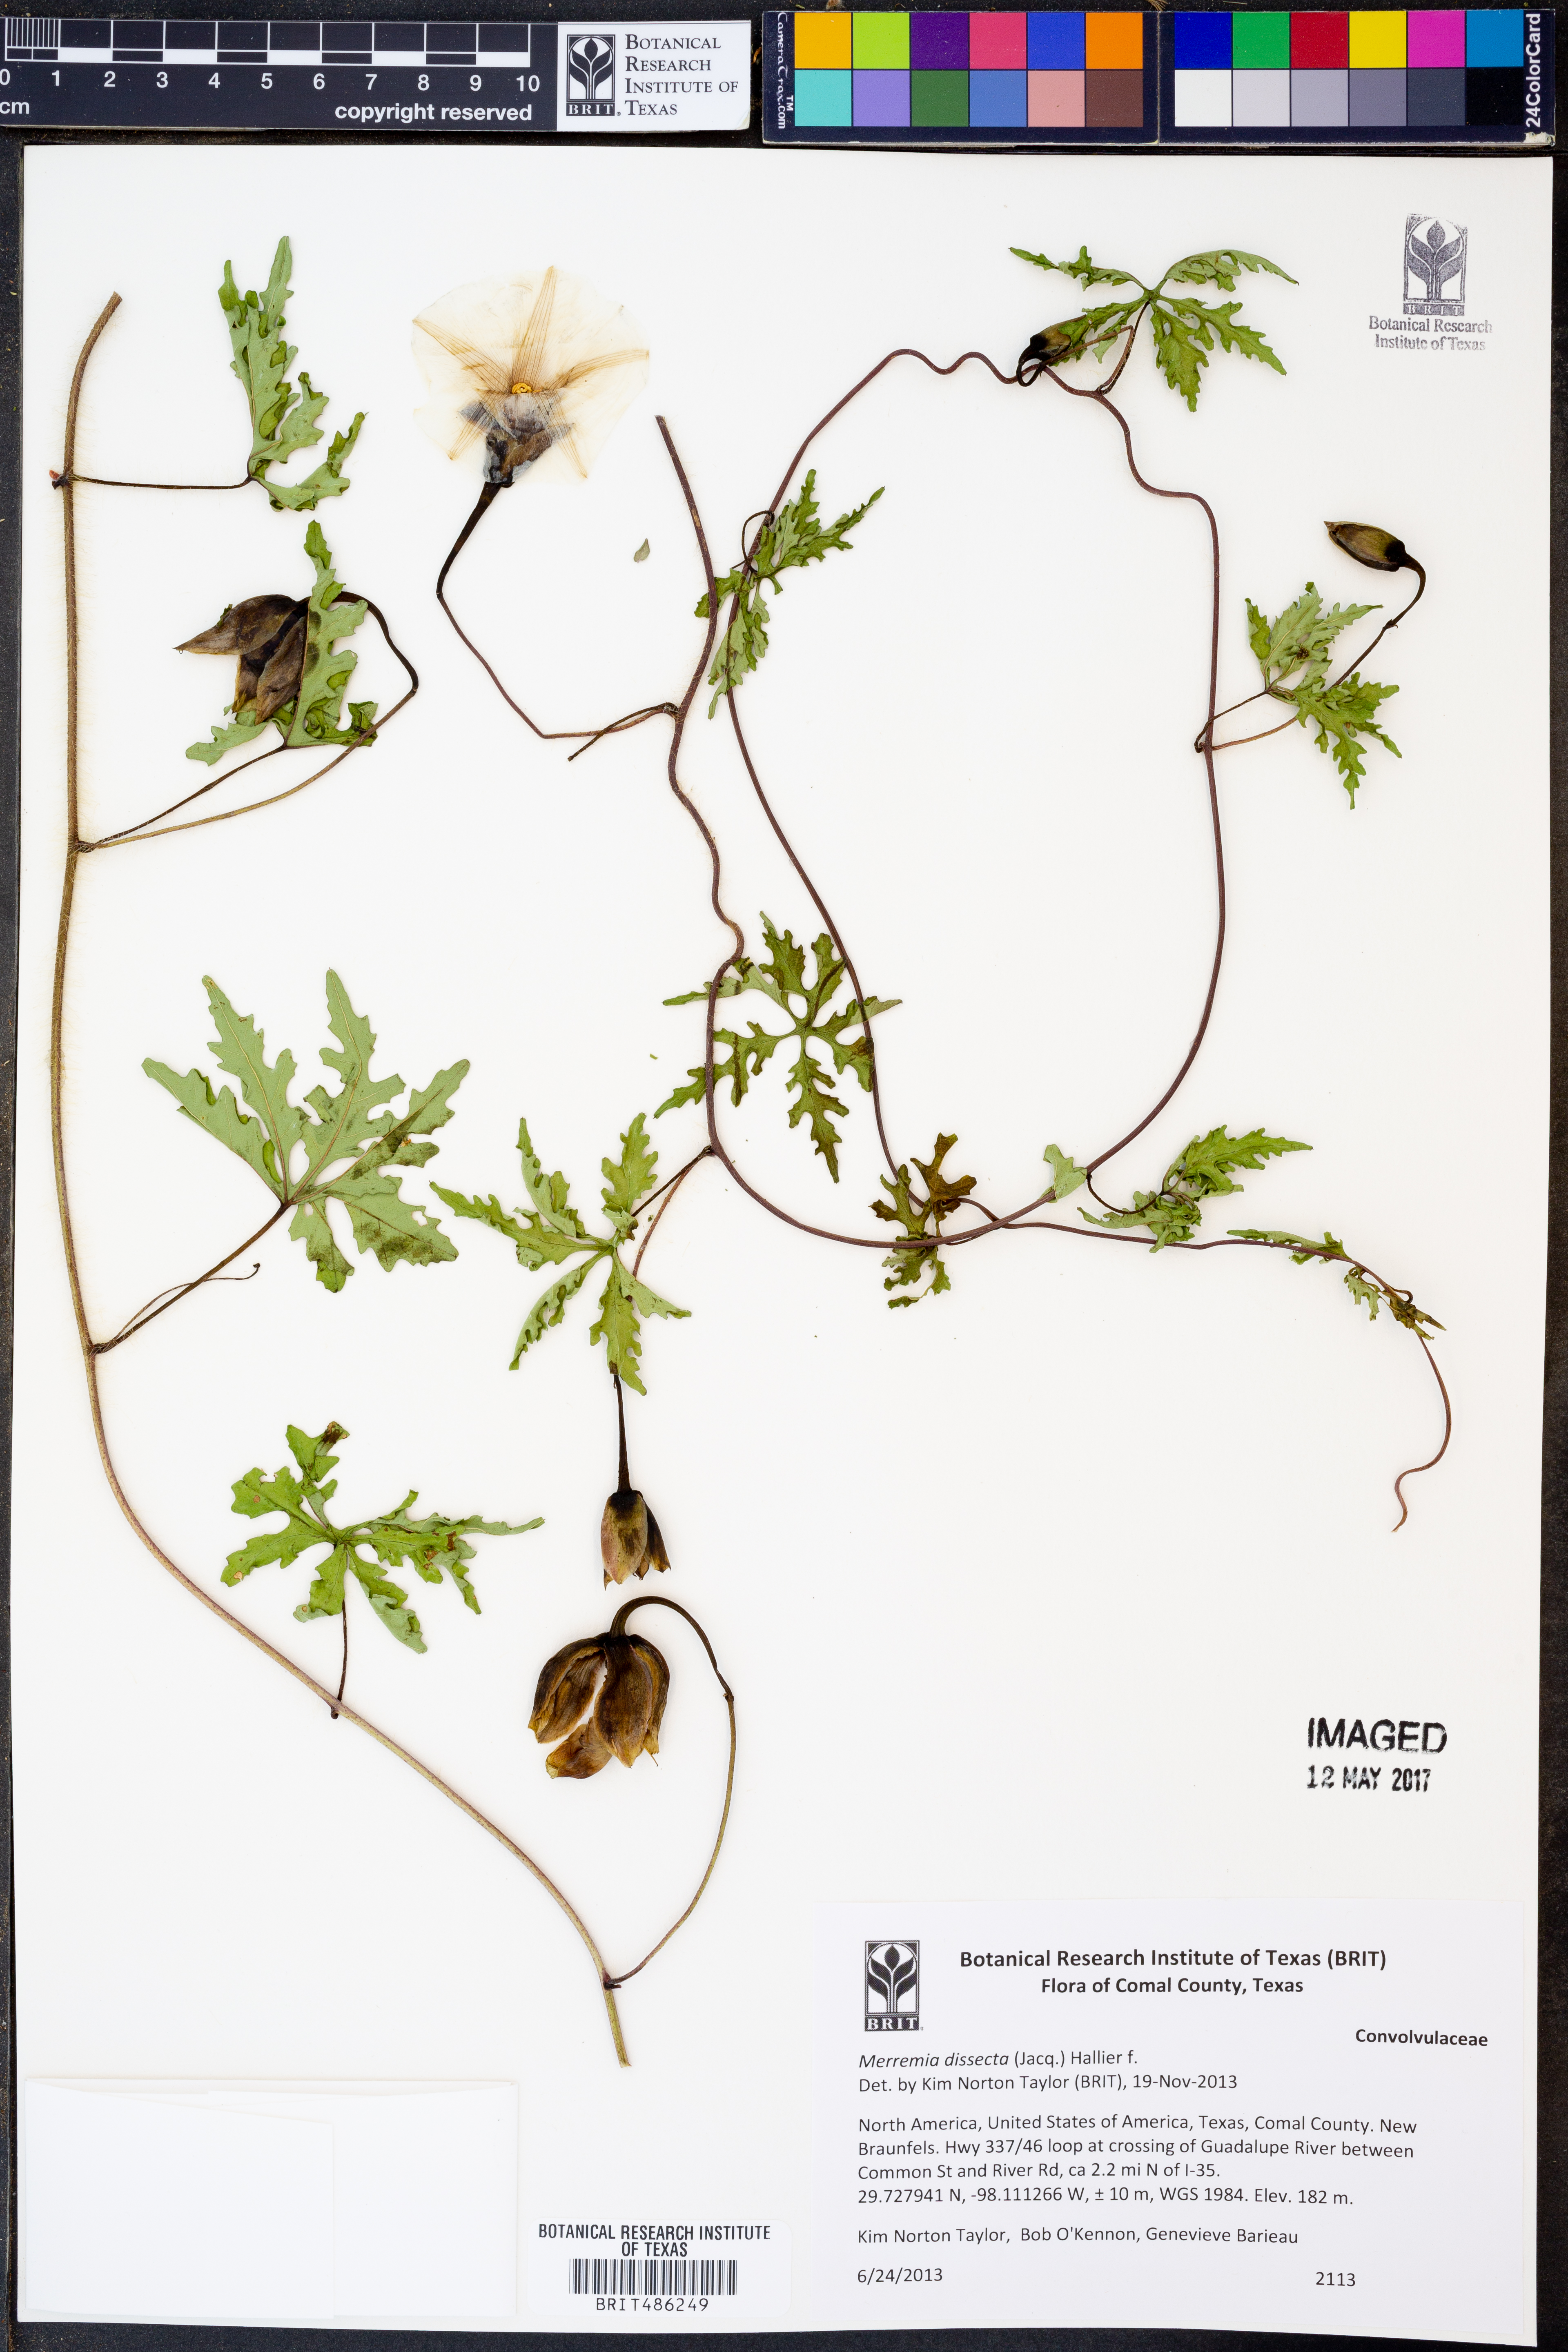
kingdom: Plantae
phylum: Tracheophyta
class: Magnoliopsida
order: Solanales
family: Convolvulaceae
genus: Distimake
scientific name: Distimake dissectus
